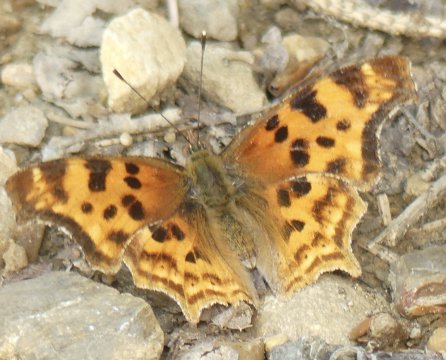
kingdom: Animalia
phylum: Arthropoda
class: Insecta
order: Lepidoptera
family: Nymphalidae
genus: Polygonia
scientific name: Polygonia satyrus
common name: Satyr Comma
